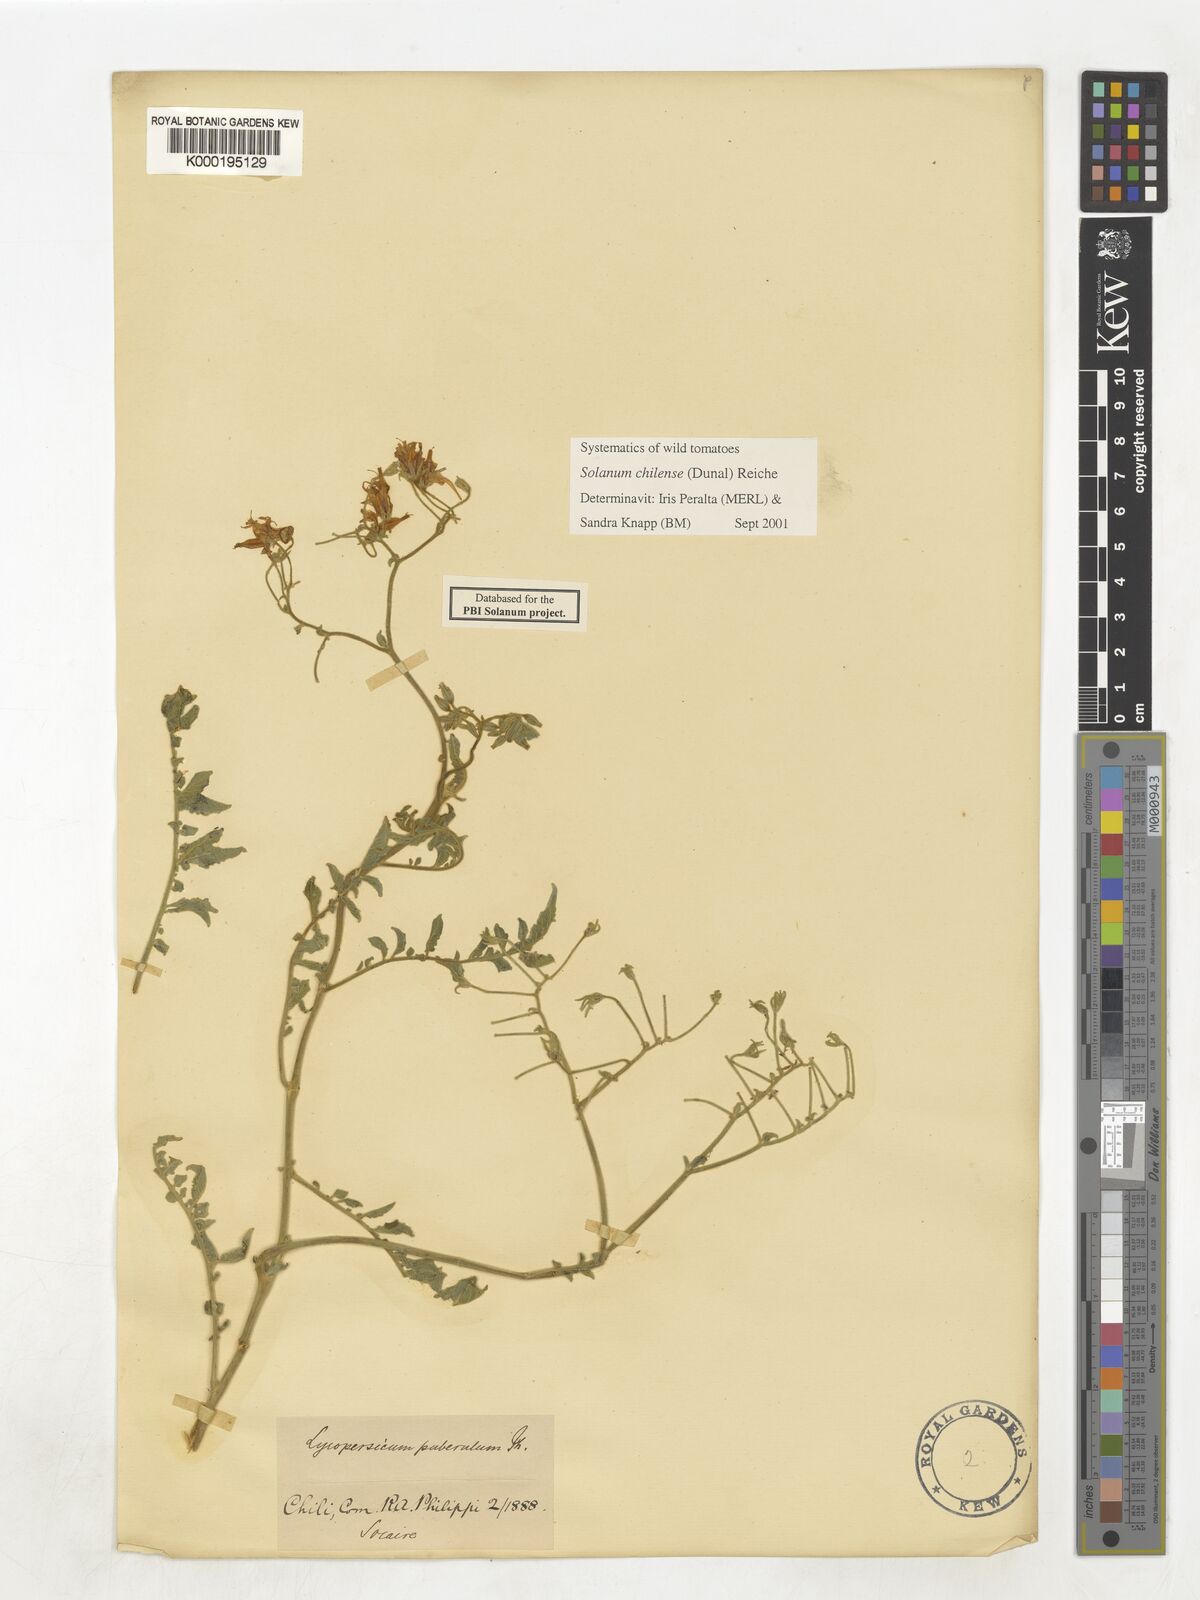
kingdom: Plantae
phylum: Tracheophyta
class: Magnoliopsida
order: Solanales
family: Solanaceae
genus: Solanum
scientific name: Solanum chilense
